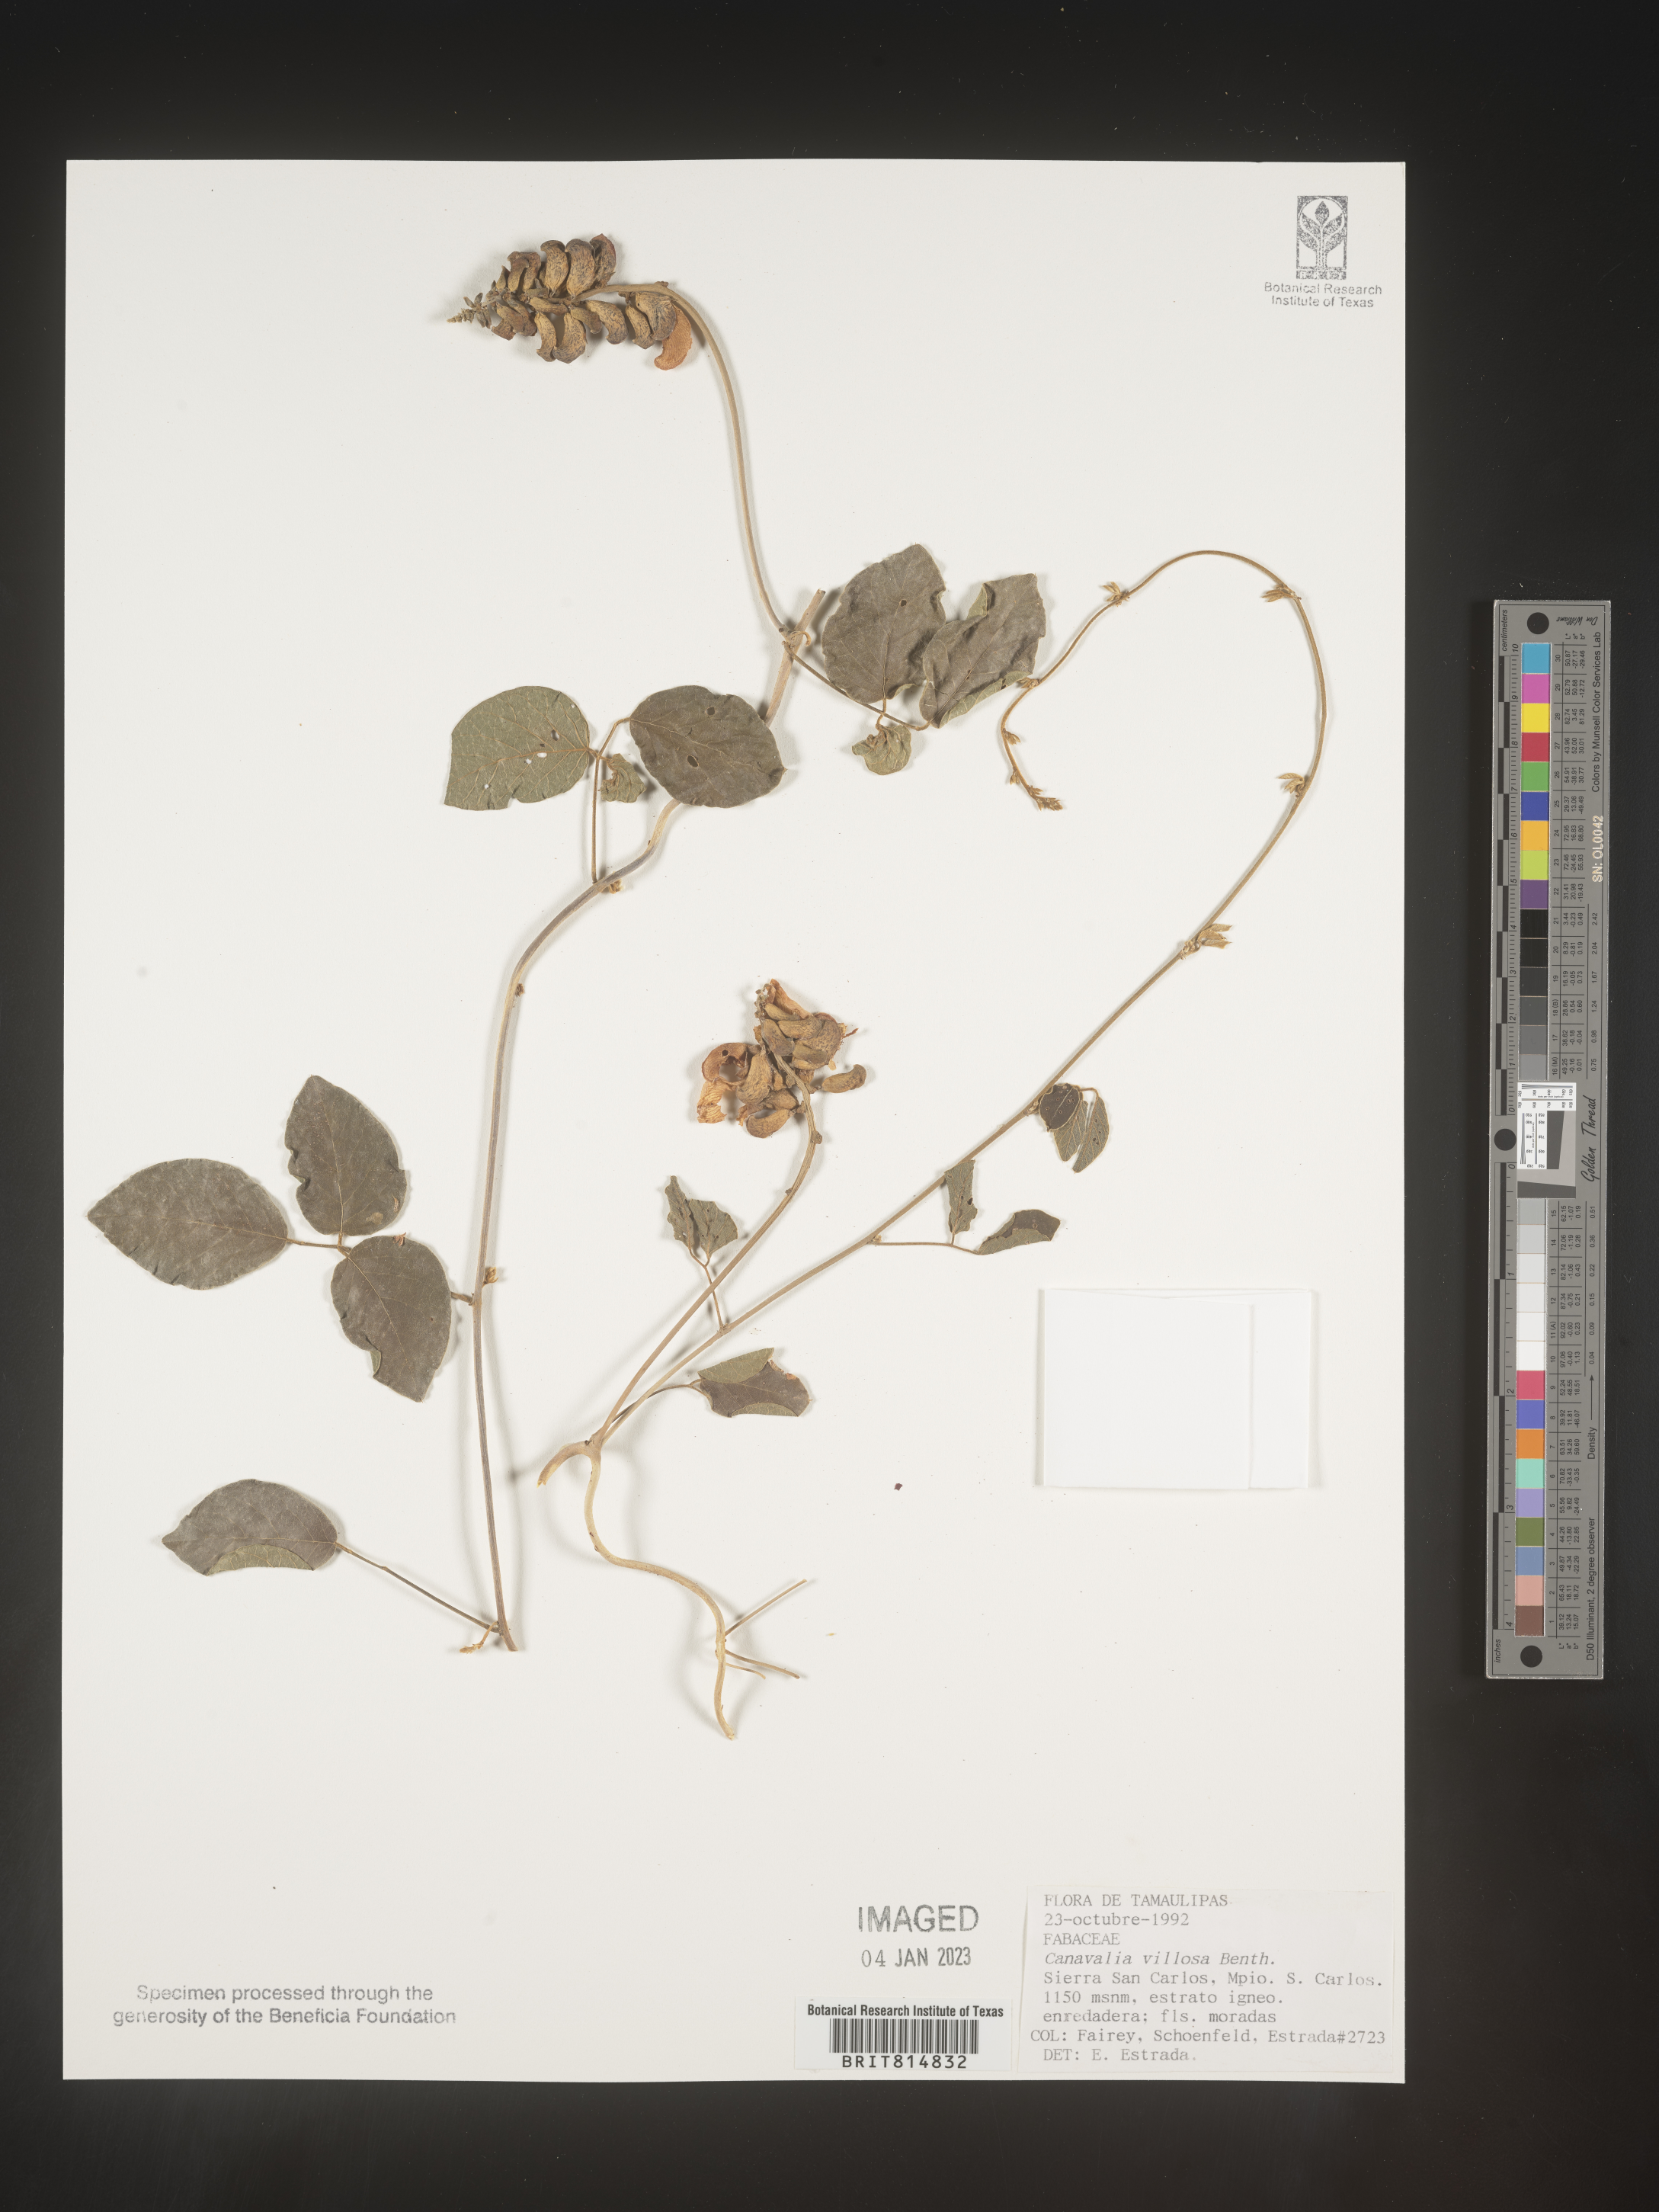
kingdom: Plantae
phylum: Tracheophyta
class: Magnoliopsida
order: Fabales
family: Fabaceae
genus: Canavalia
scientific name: Canavalia
